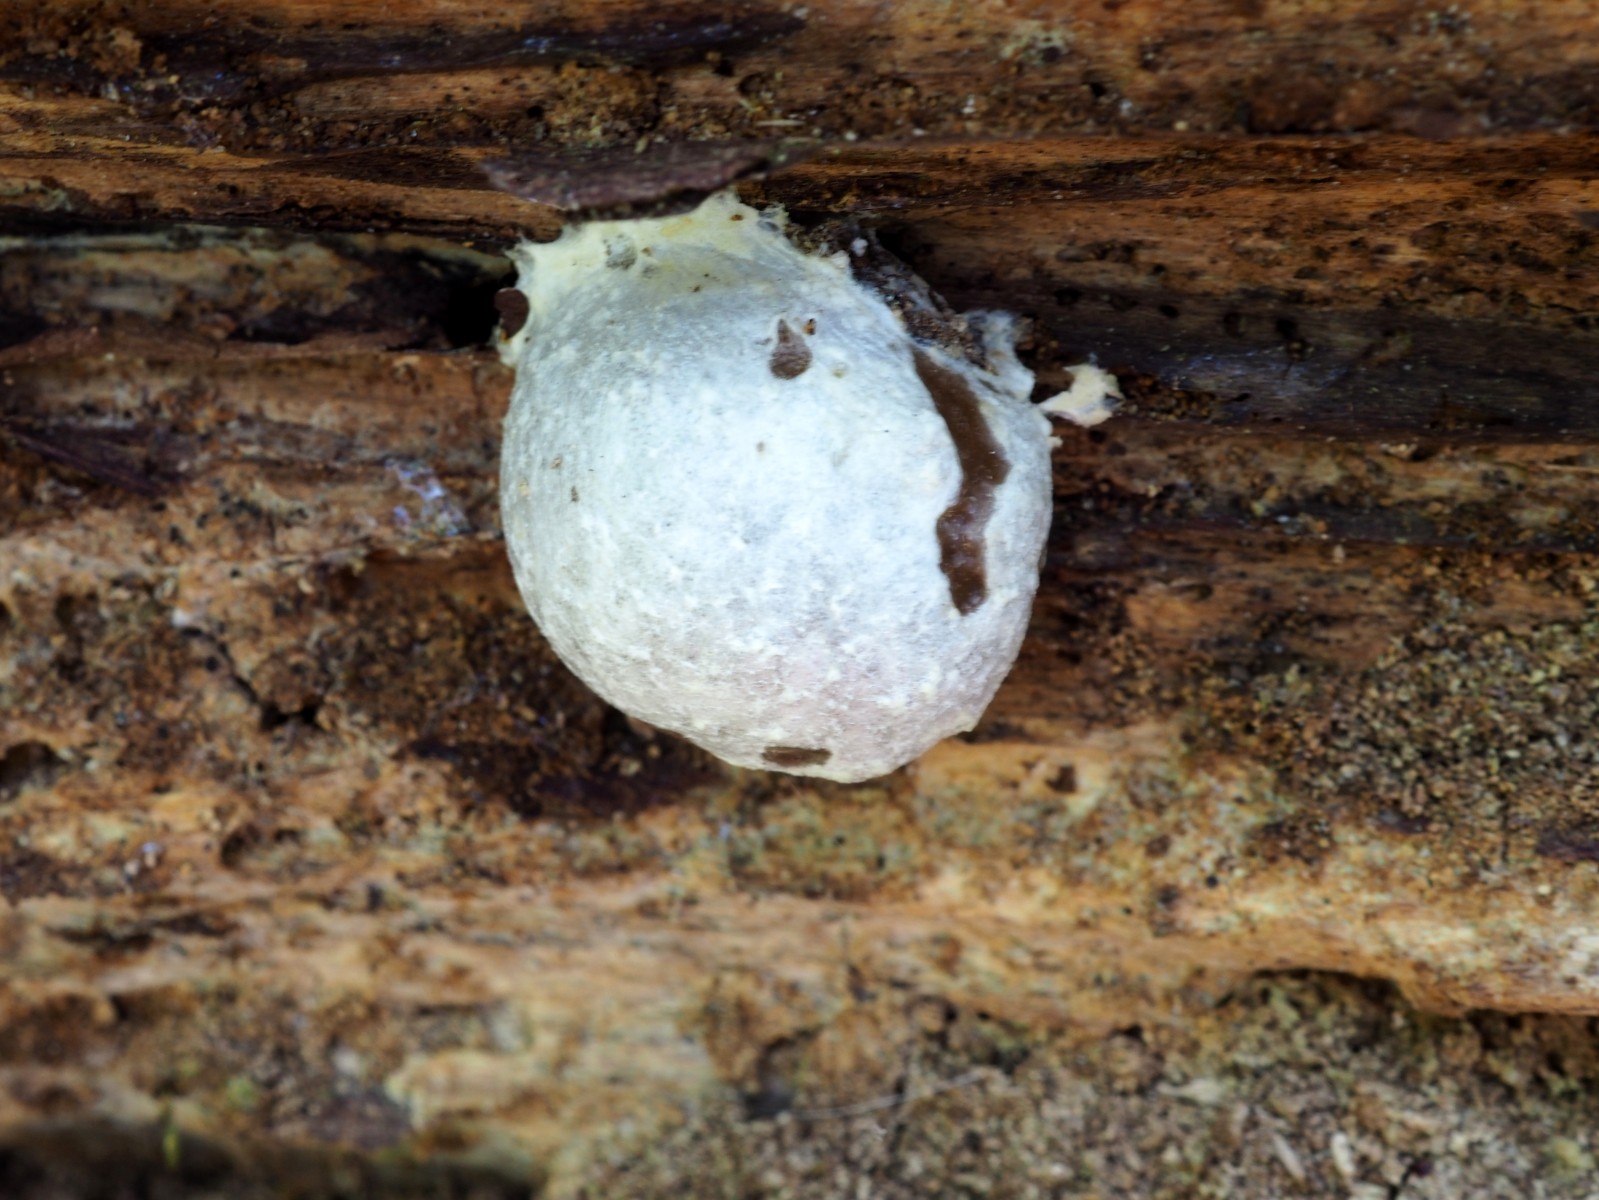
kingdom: Protozoa
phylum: Mycetozoa
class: Myxomycetes
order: Cribrariales
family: Tubiferaceae
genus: Reticularia
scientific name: Reticularia lycoperdon
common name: skinnende støvpude
